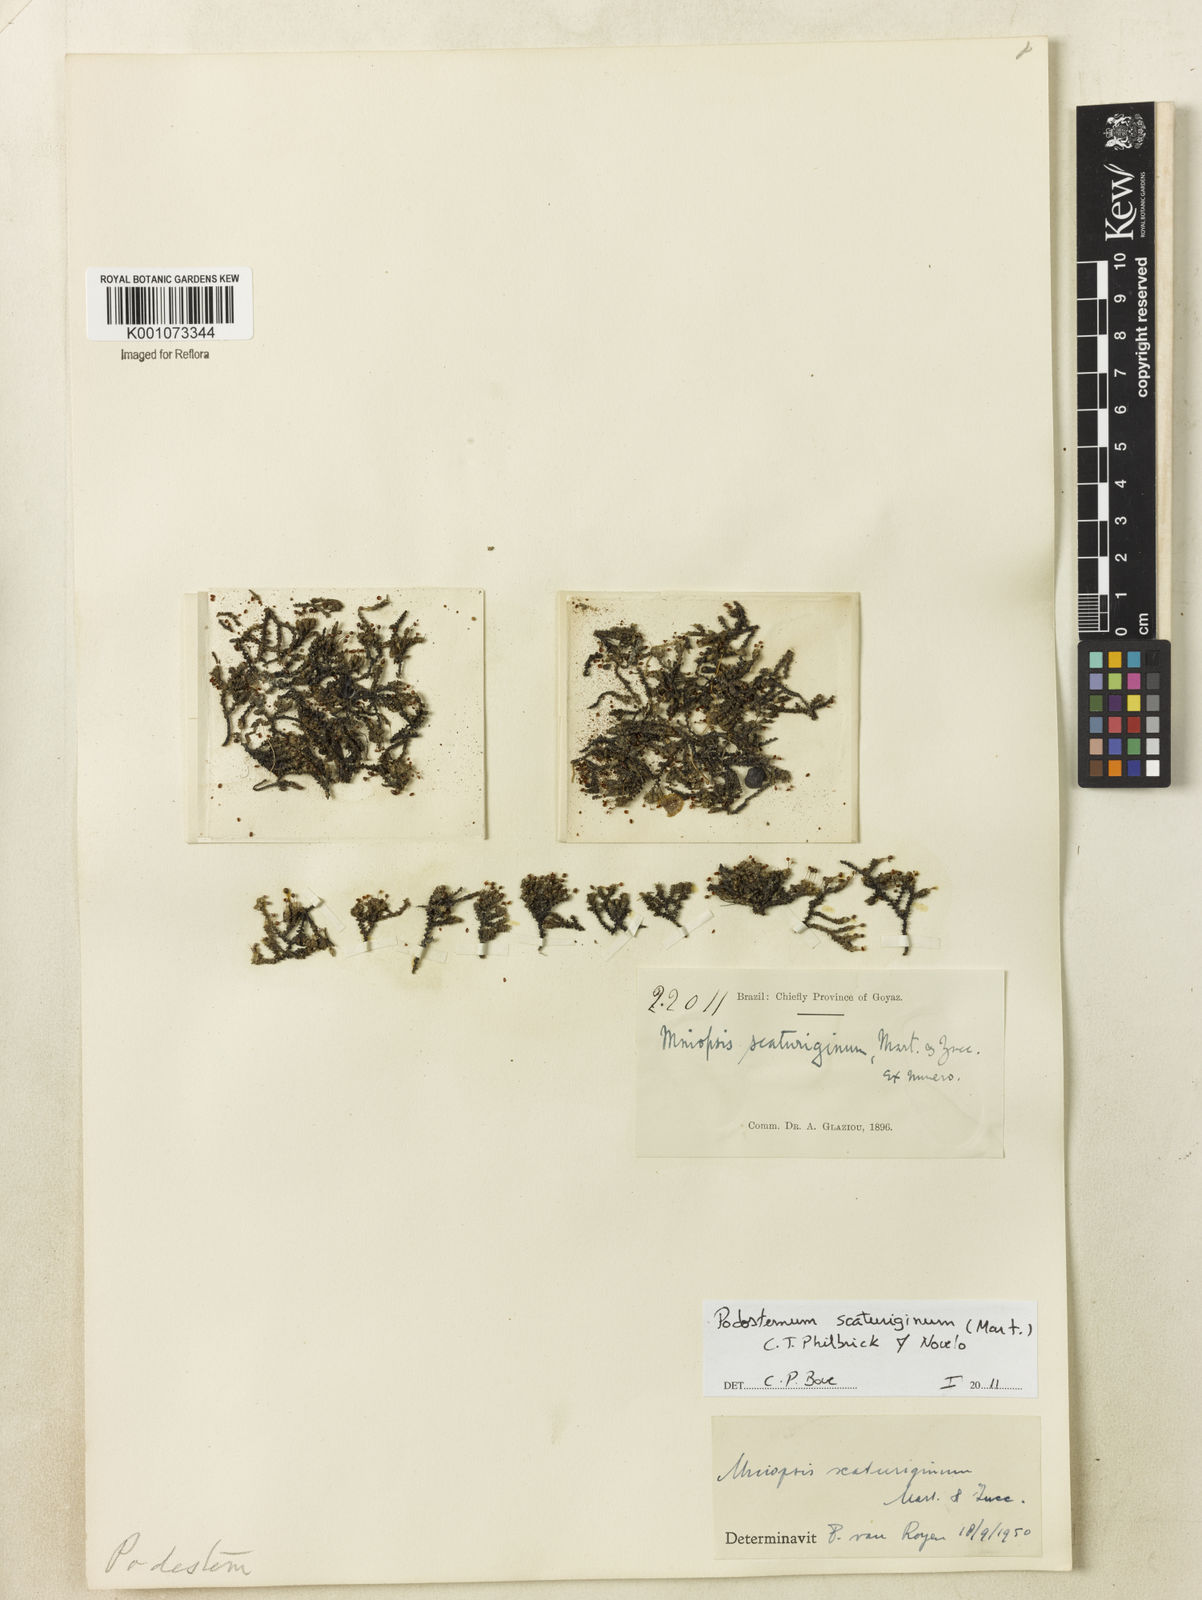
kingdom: Plantae
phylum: Tracheophyta
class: Magnoliopsida
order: Malpighiales
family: Podostemaceae
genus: Podostemum
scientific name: Podostemum scaturiginum
